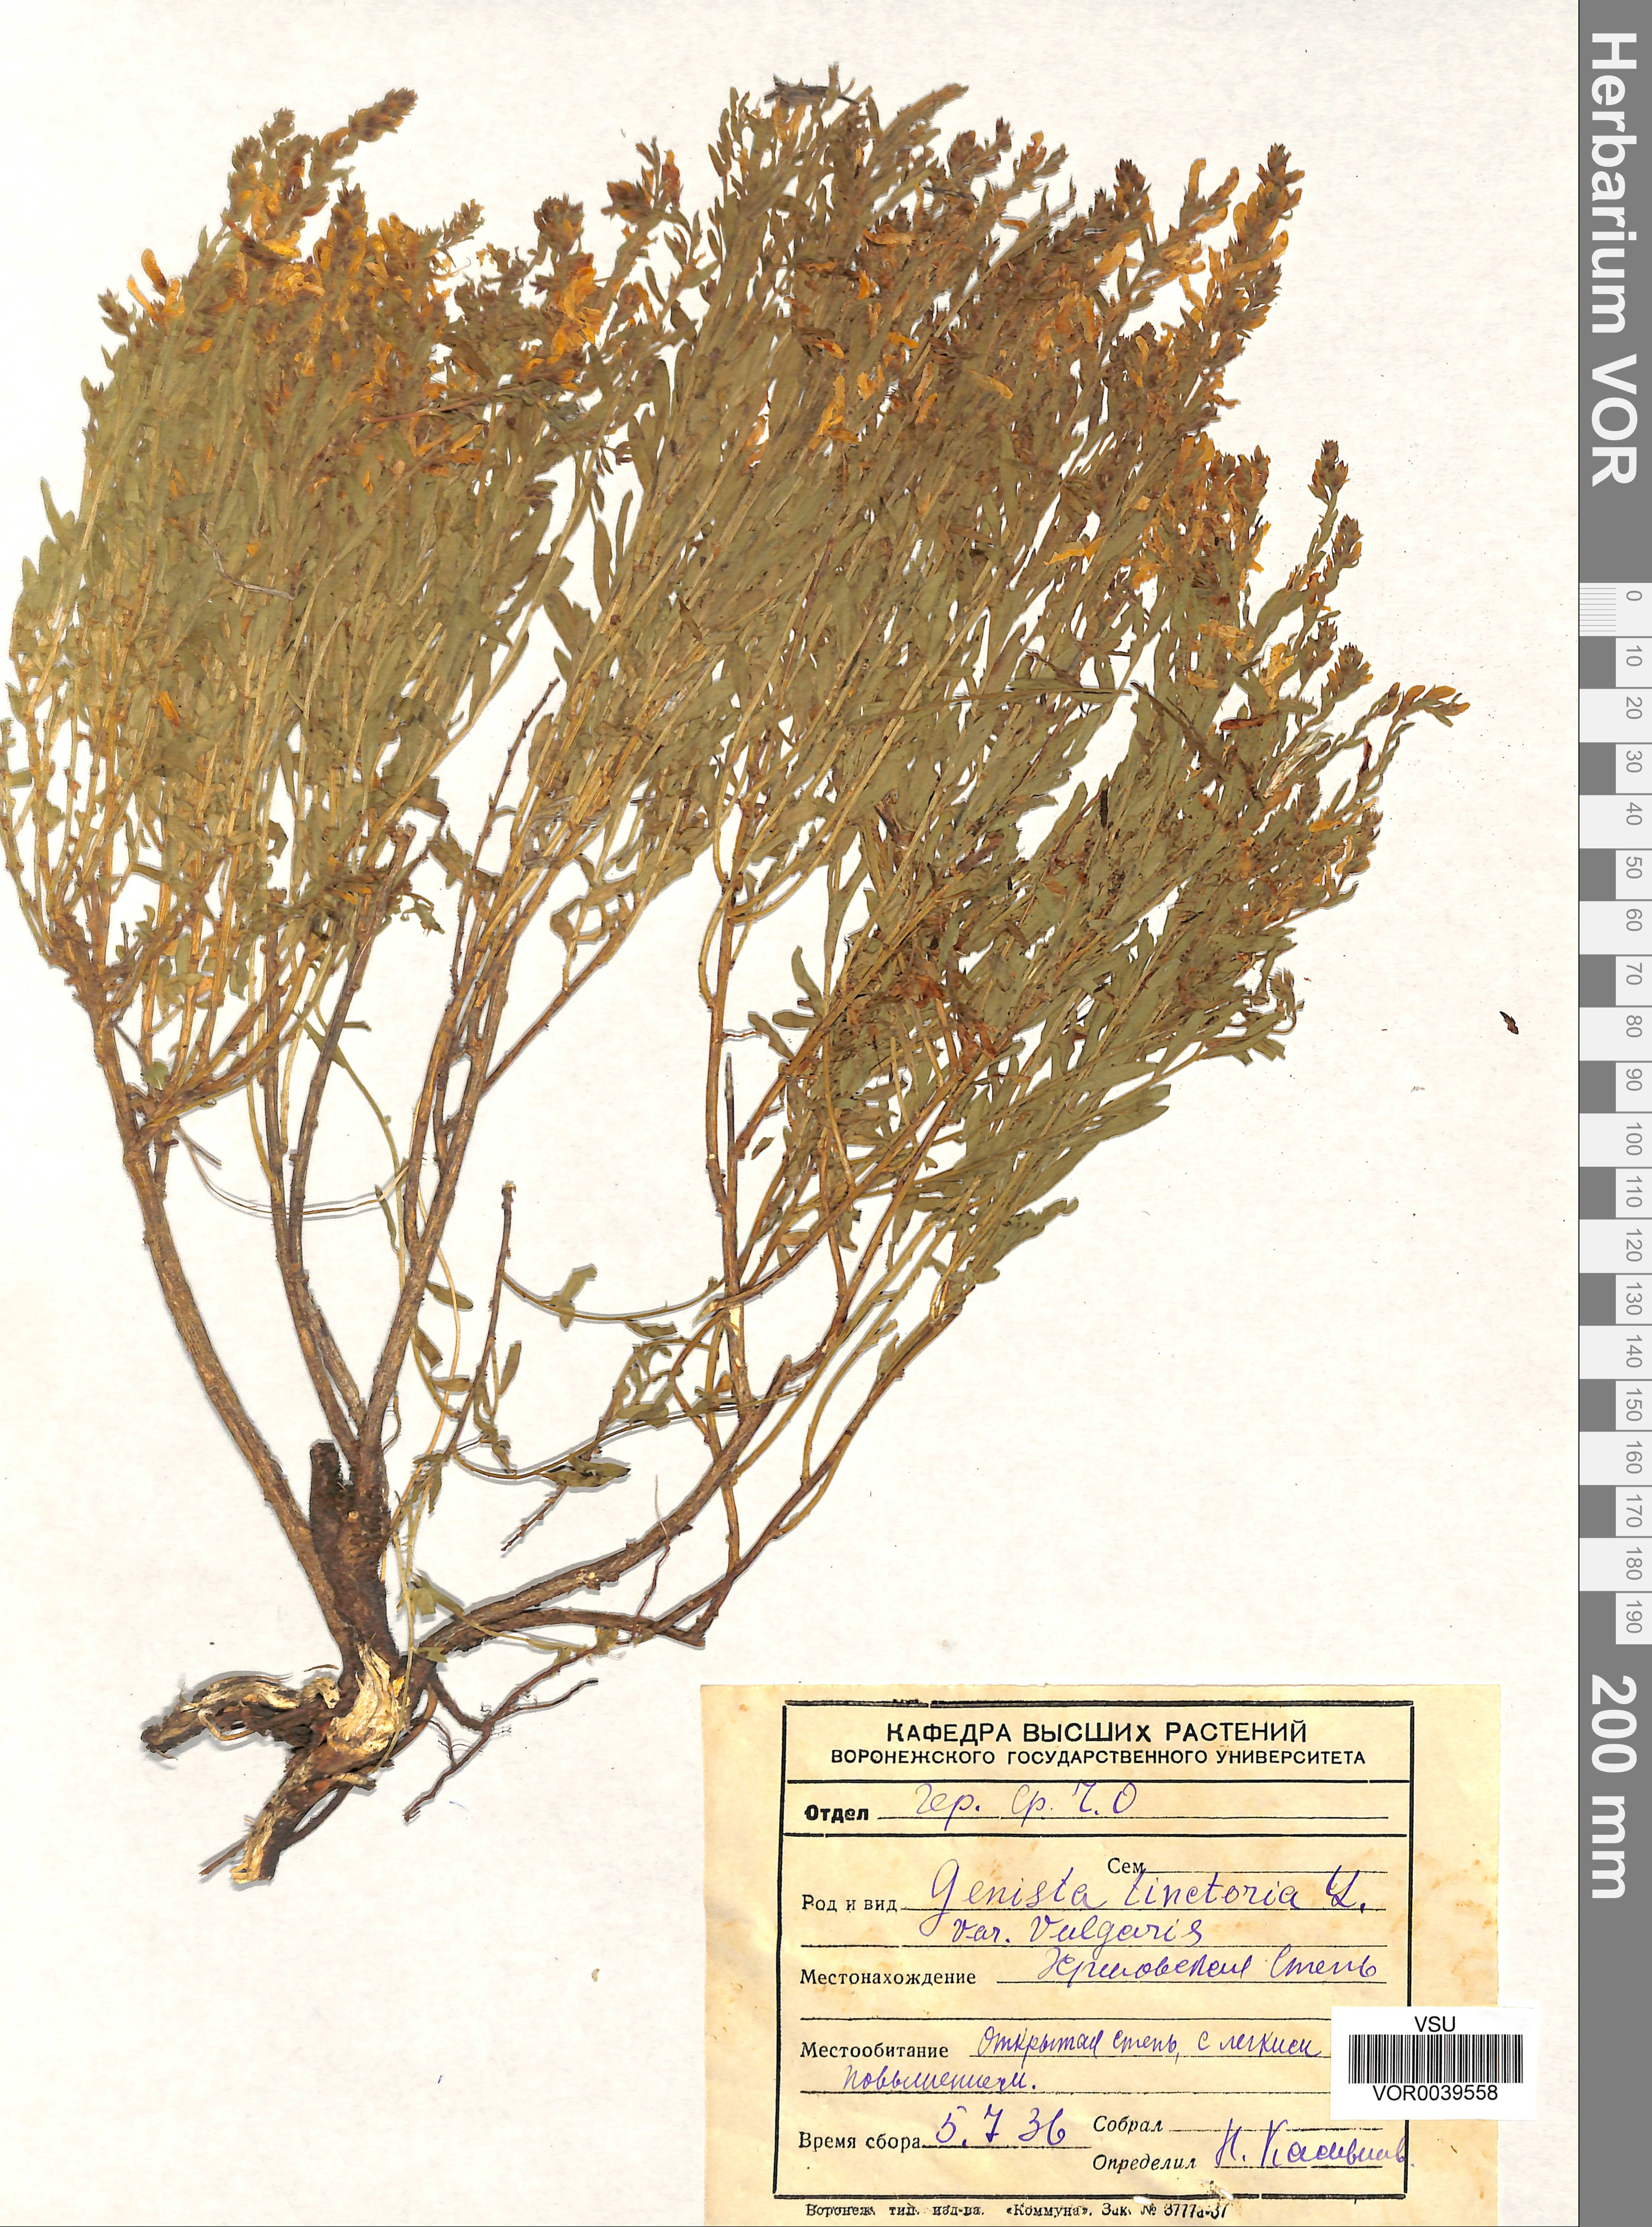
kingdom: Plantae
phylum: Tracheophyta
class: Magnoliopsida
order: Fabales
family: Fabaceae
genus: Genista
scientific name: Genista tinctoria
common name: Dyer's greenweed
